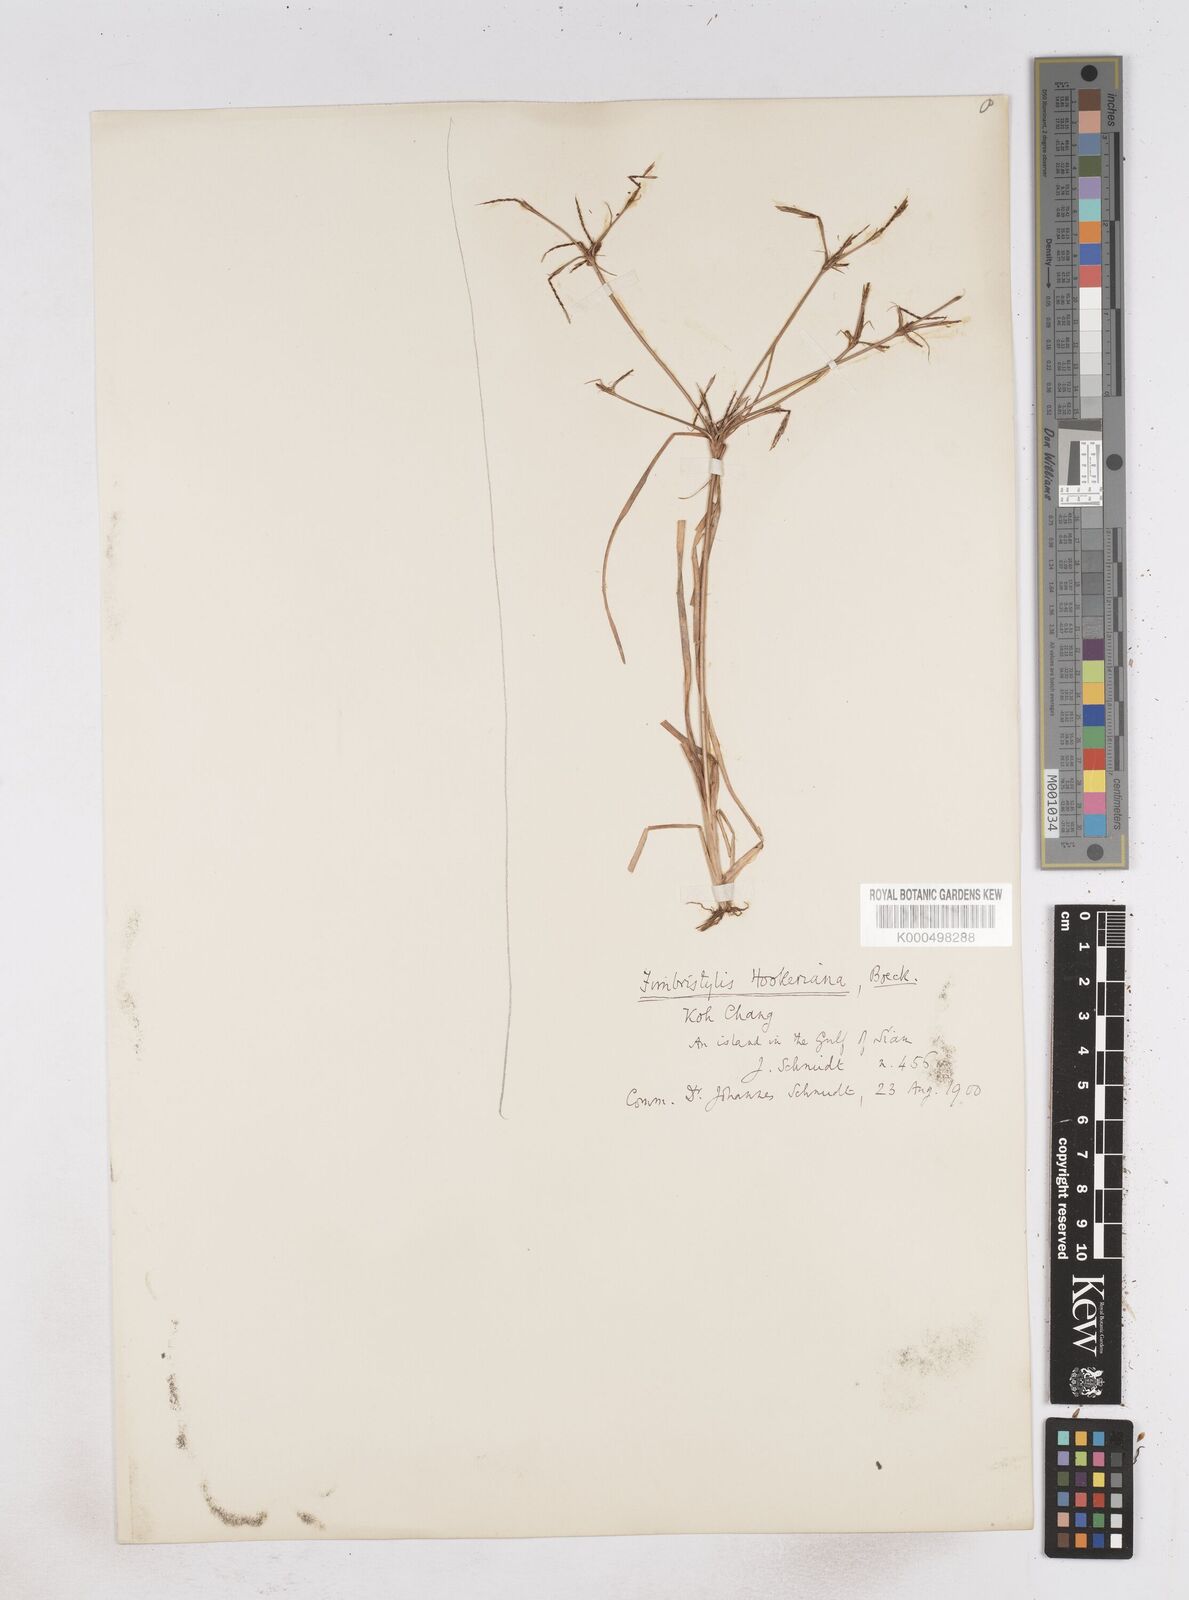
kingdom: Plantae
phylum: Tracheophyta
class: Liliopsida
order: Poales
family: Cyperaceae
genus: Fimbristylis
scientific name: Fimbristylis hookeriana
